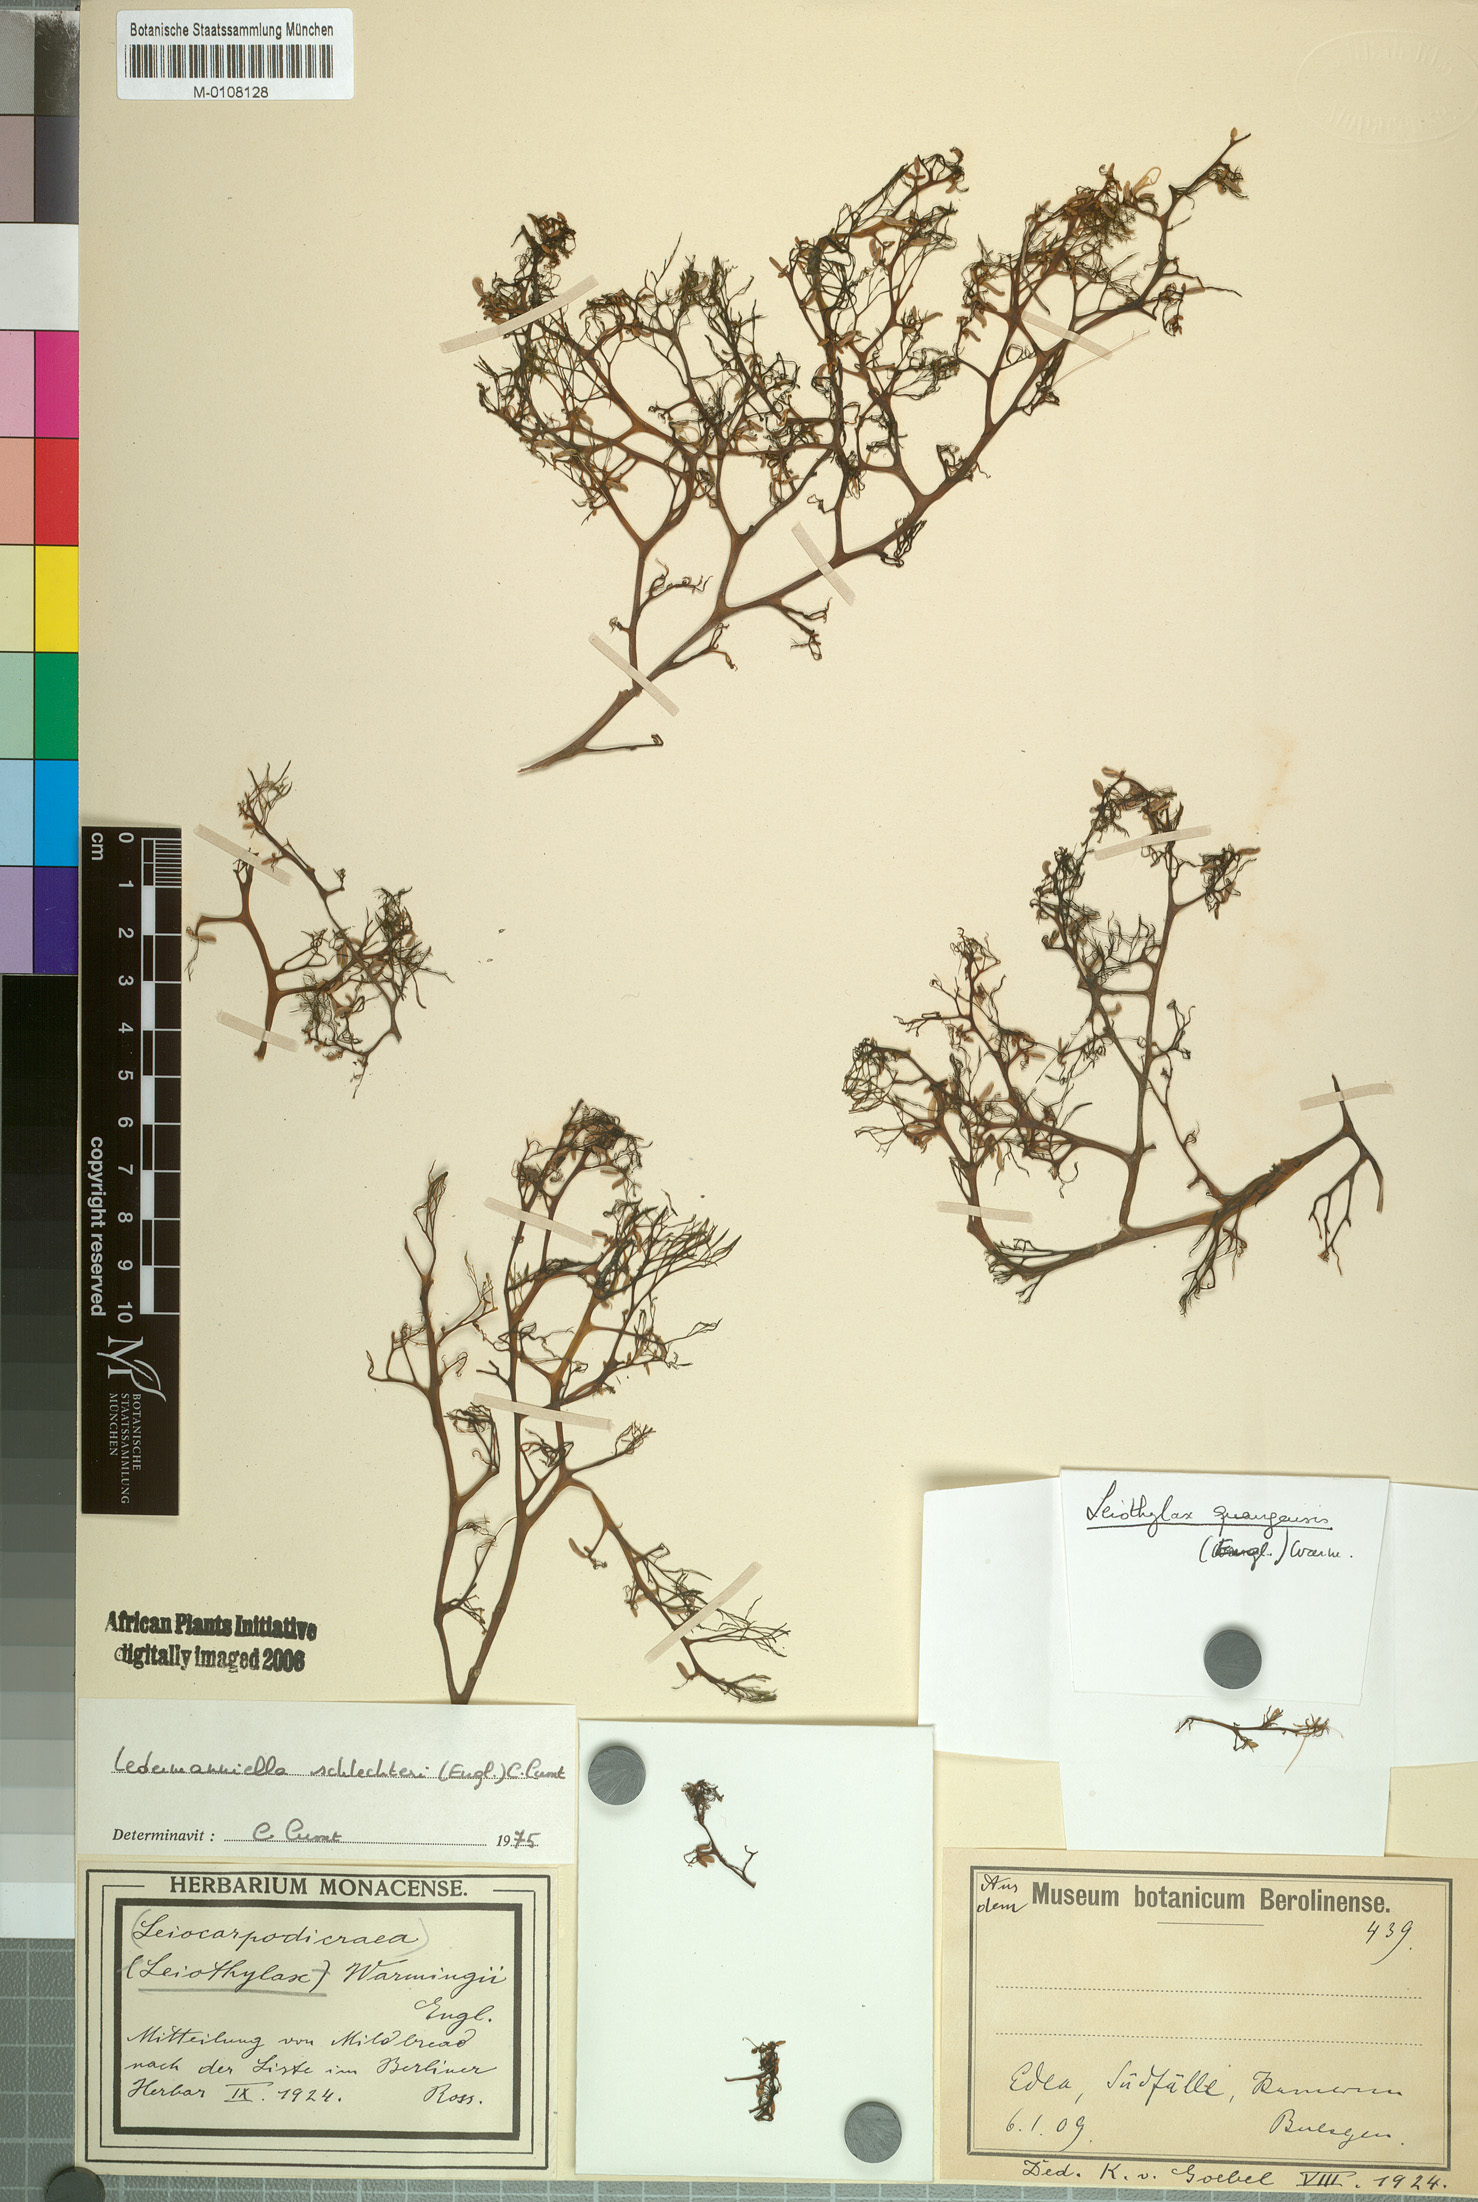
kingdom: Plantae
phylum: Tracheophyta
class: Magnoliopsida
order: Malpighiales
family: Podostemaceae
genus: Ledermanniella
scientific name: Ledermanniella schlechteri
